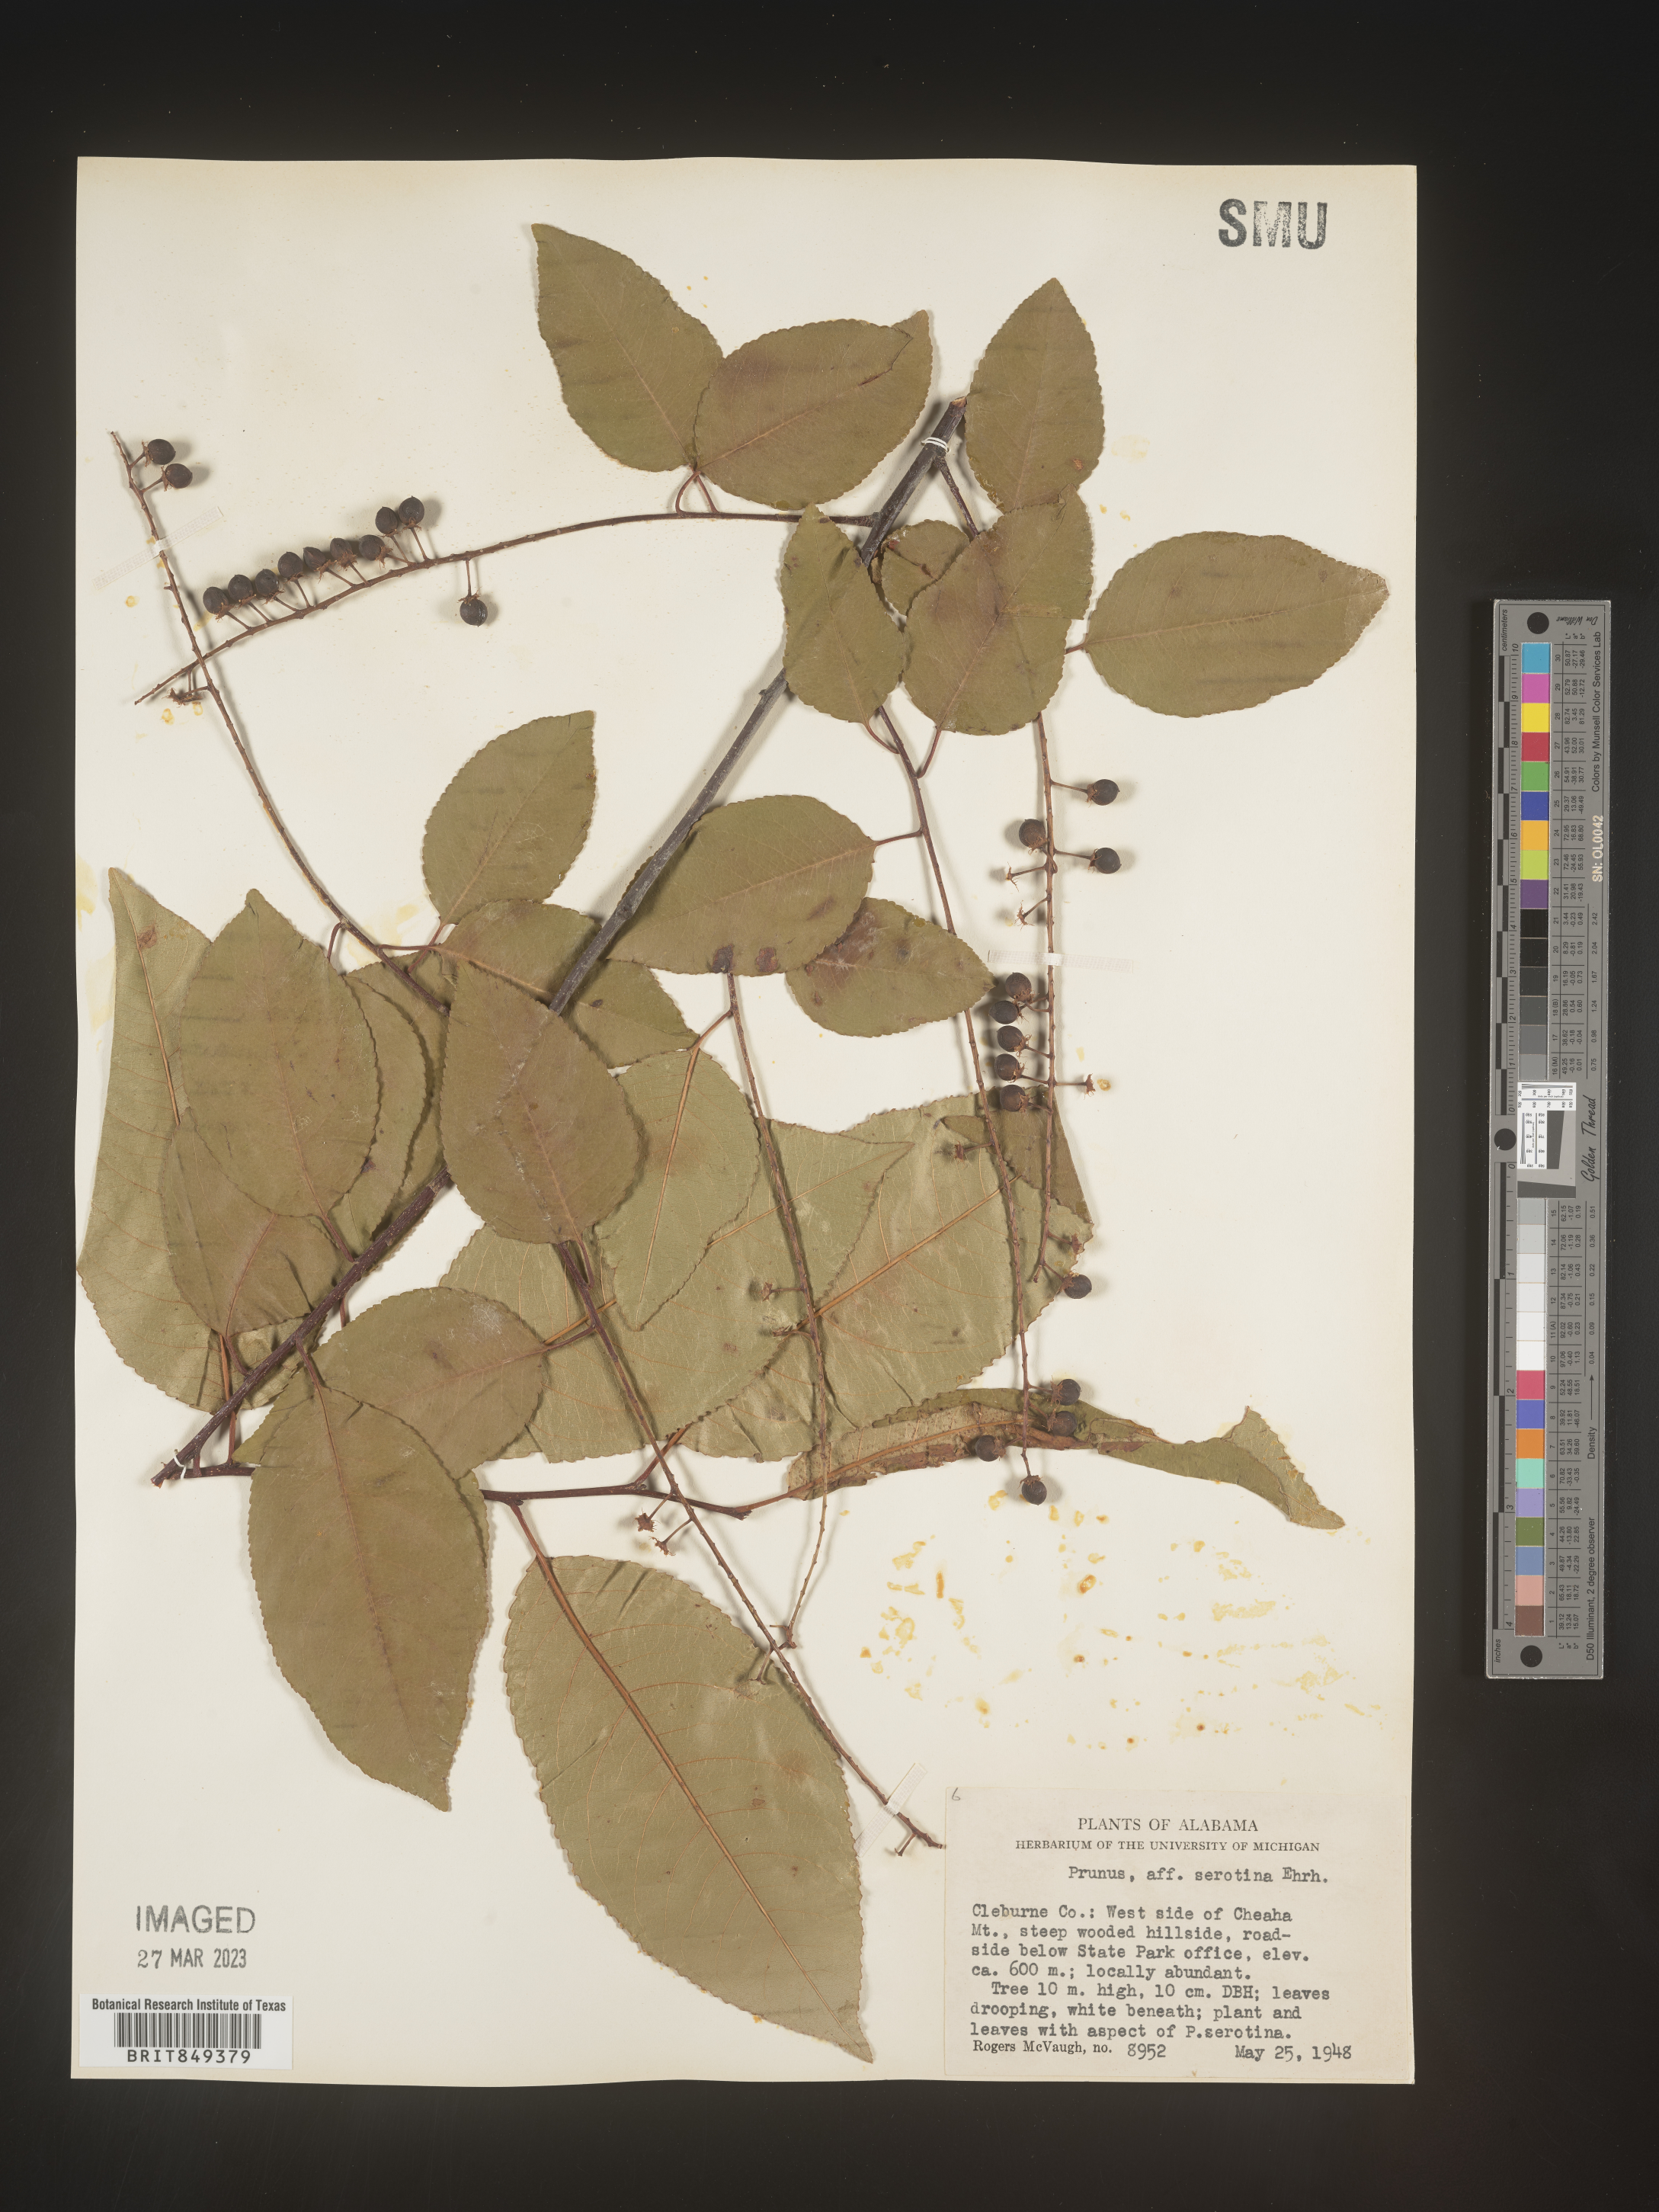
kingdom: Plantae
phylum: Tracheophyta
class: Magnoliopsida
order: Rosales
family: Rosaceae
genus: Prunus
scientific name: Prunus serotina
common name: Black cherry
